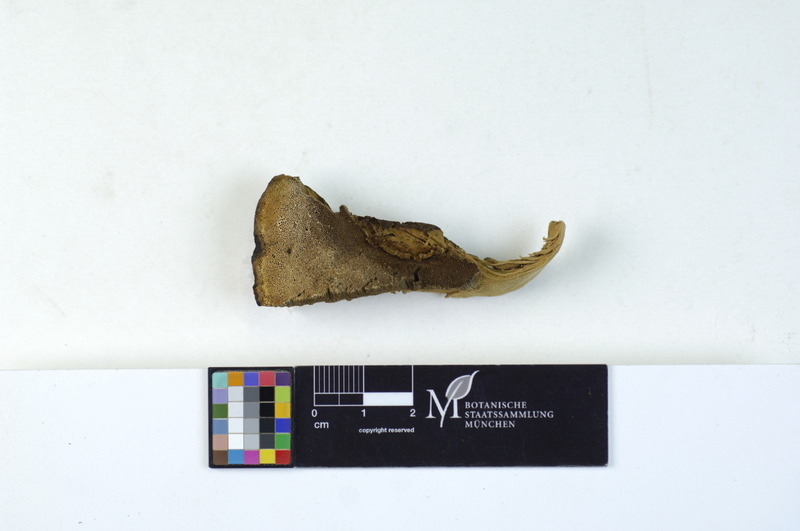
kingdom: Fungi
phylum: Basidiomycota
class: Agaricomycetes
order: Polyporales
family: Ischnodermataceae
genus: Ischnoderma
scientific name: Ischnoderma benzoinum
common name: Benzoin bracket
